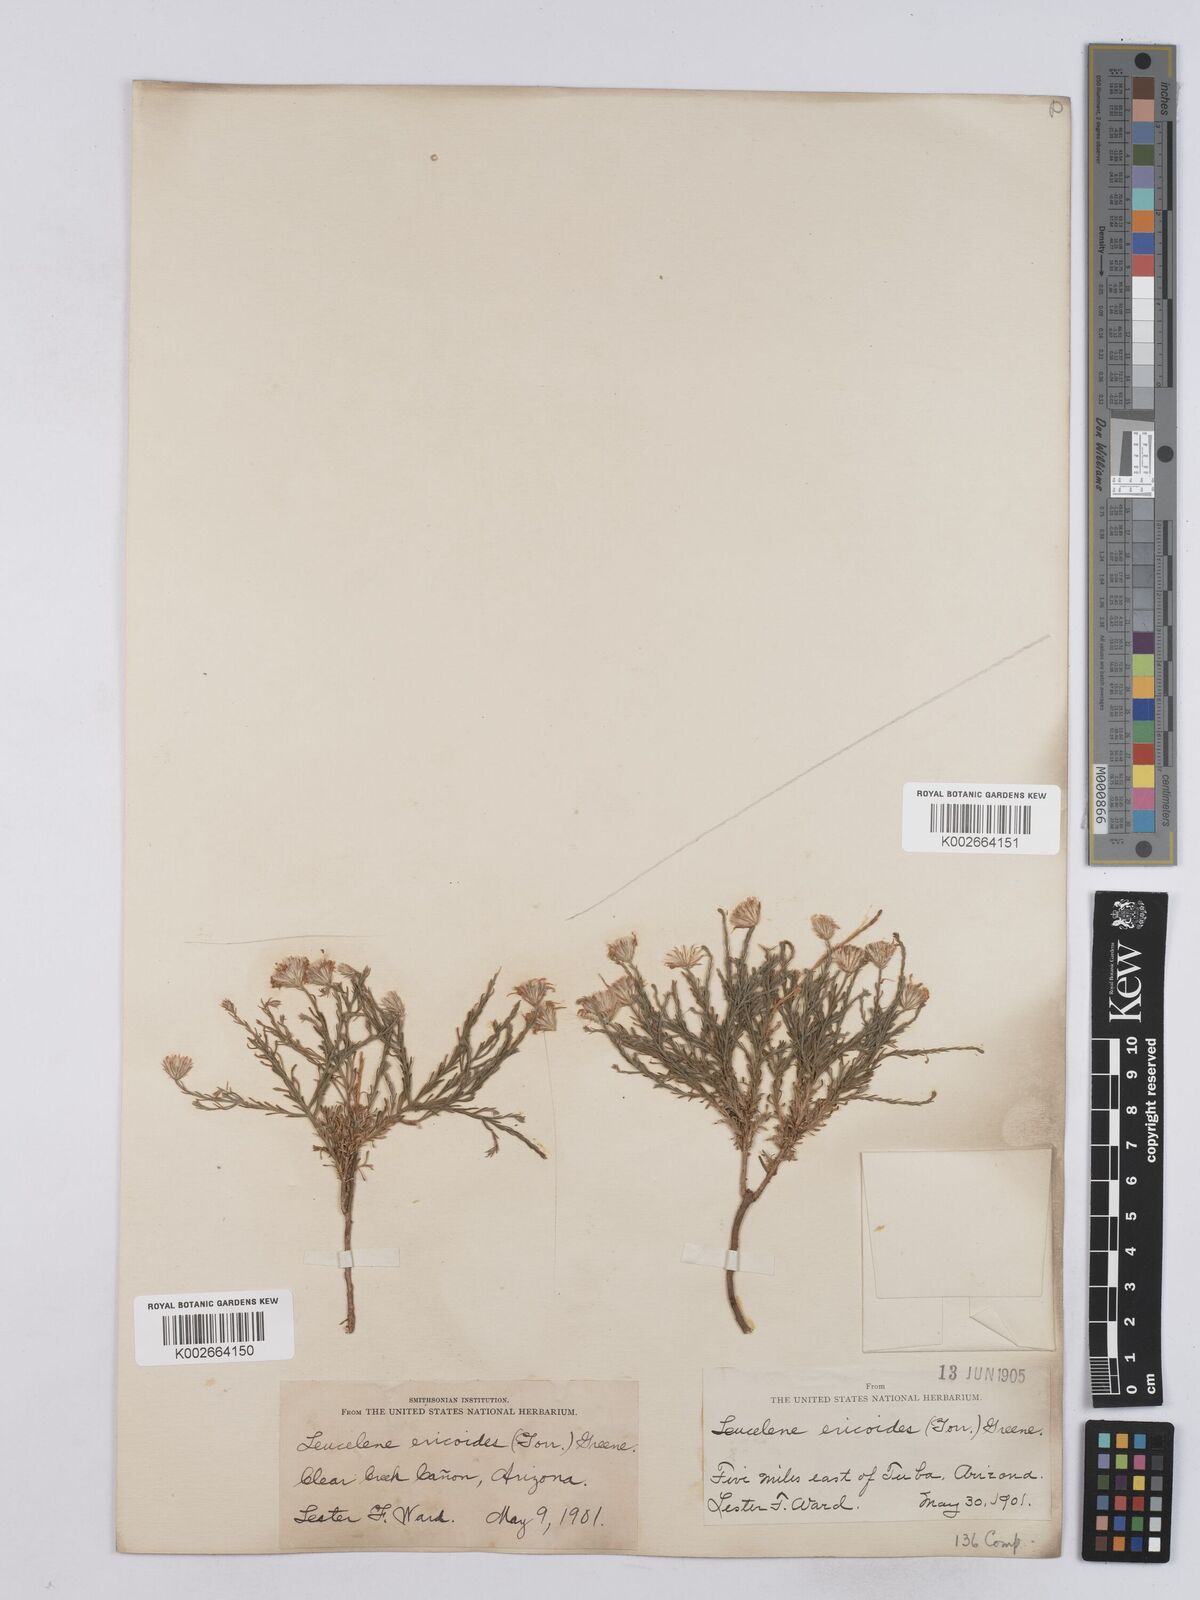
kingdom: Plantae
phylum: Tracheophyta
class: Magnoliopsida
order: Asterales
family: Asteraceae
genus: Chaetopappa
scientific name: Chaetopappa ericoides
